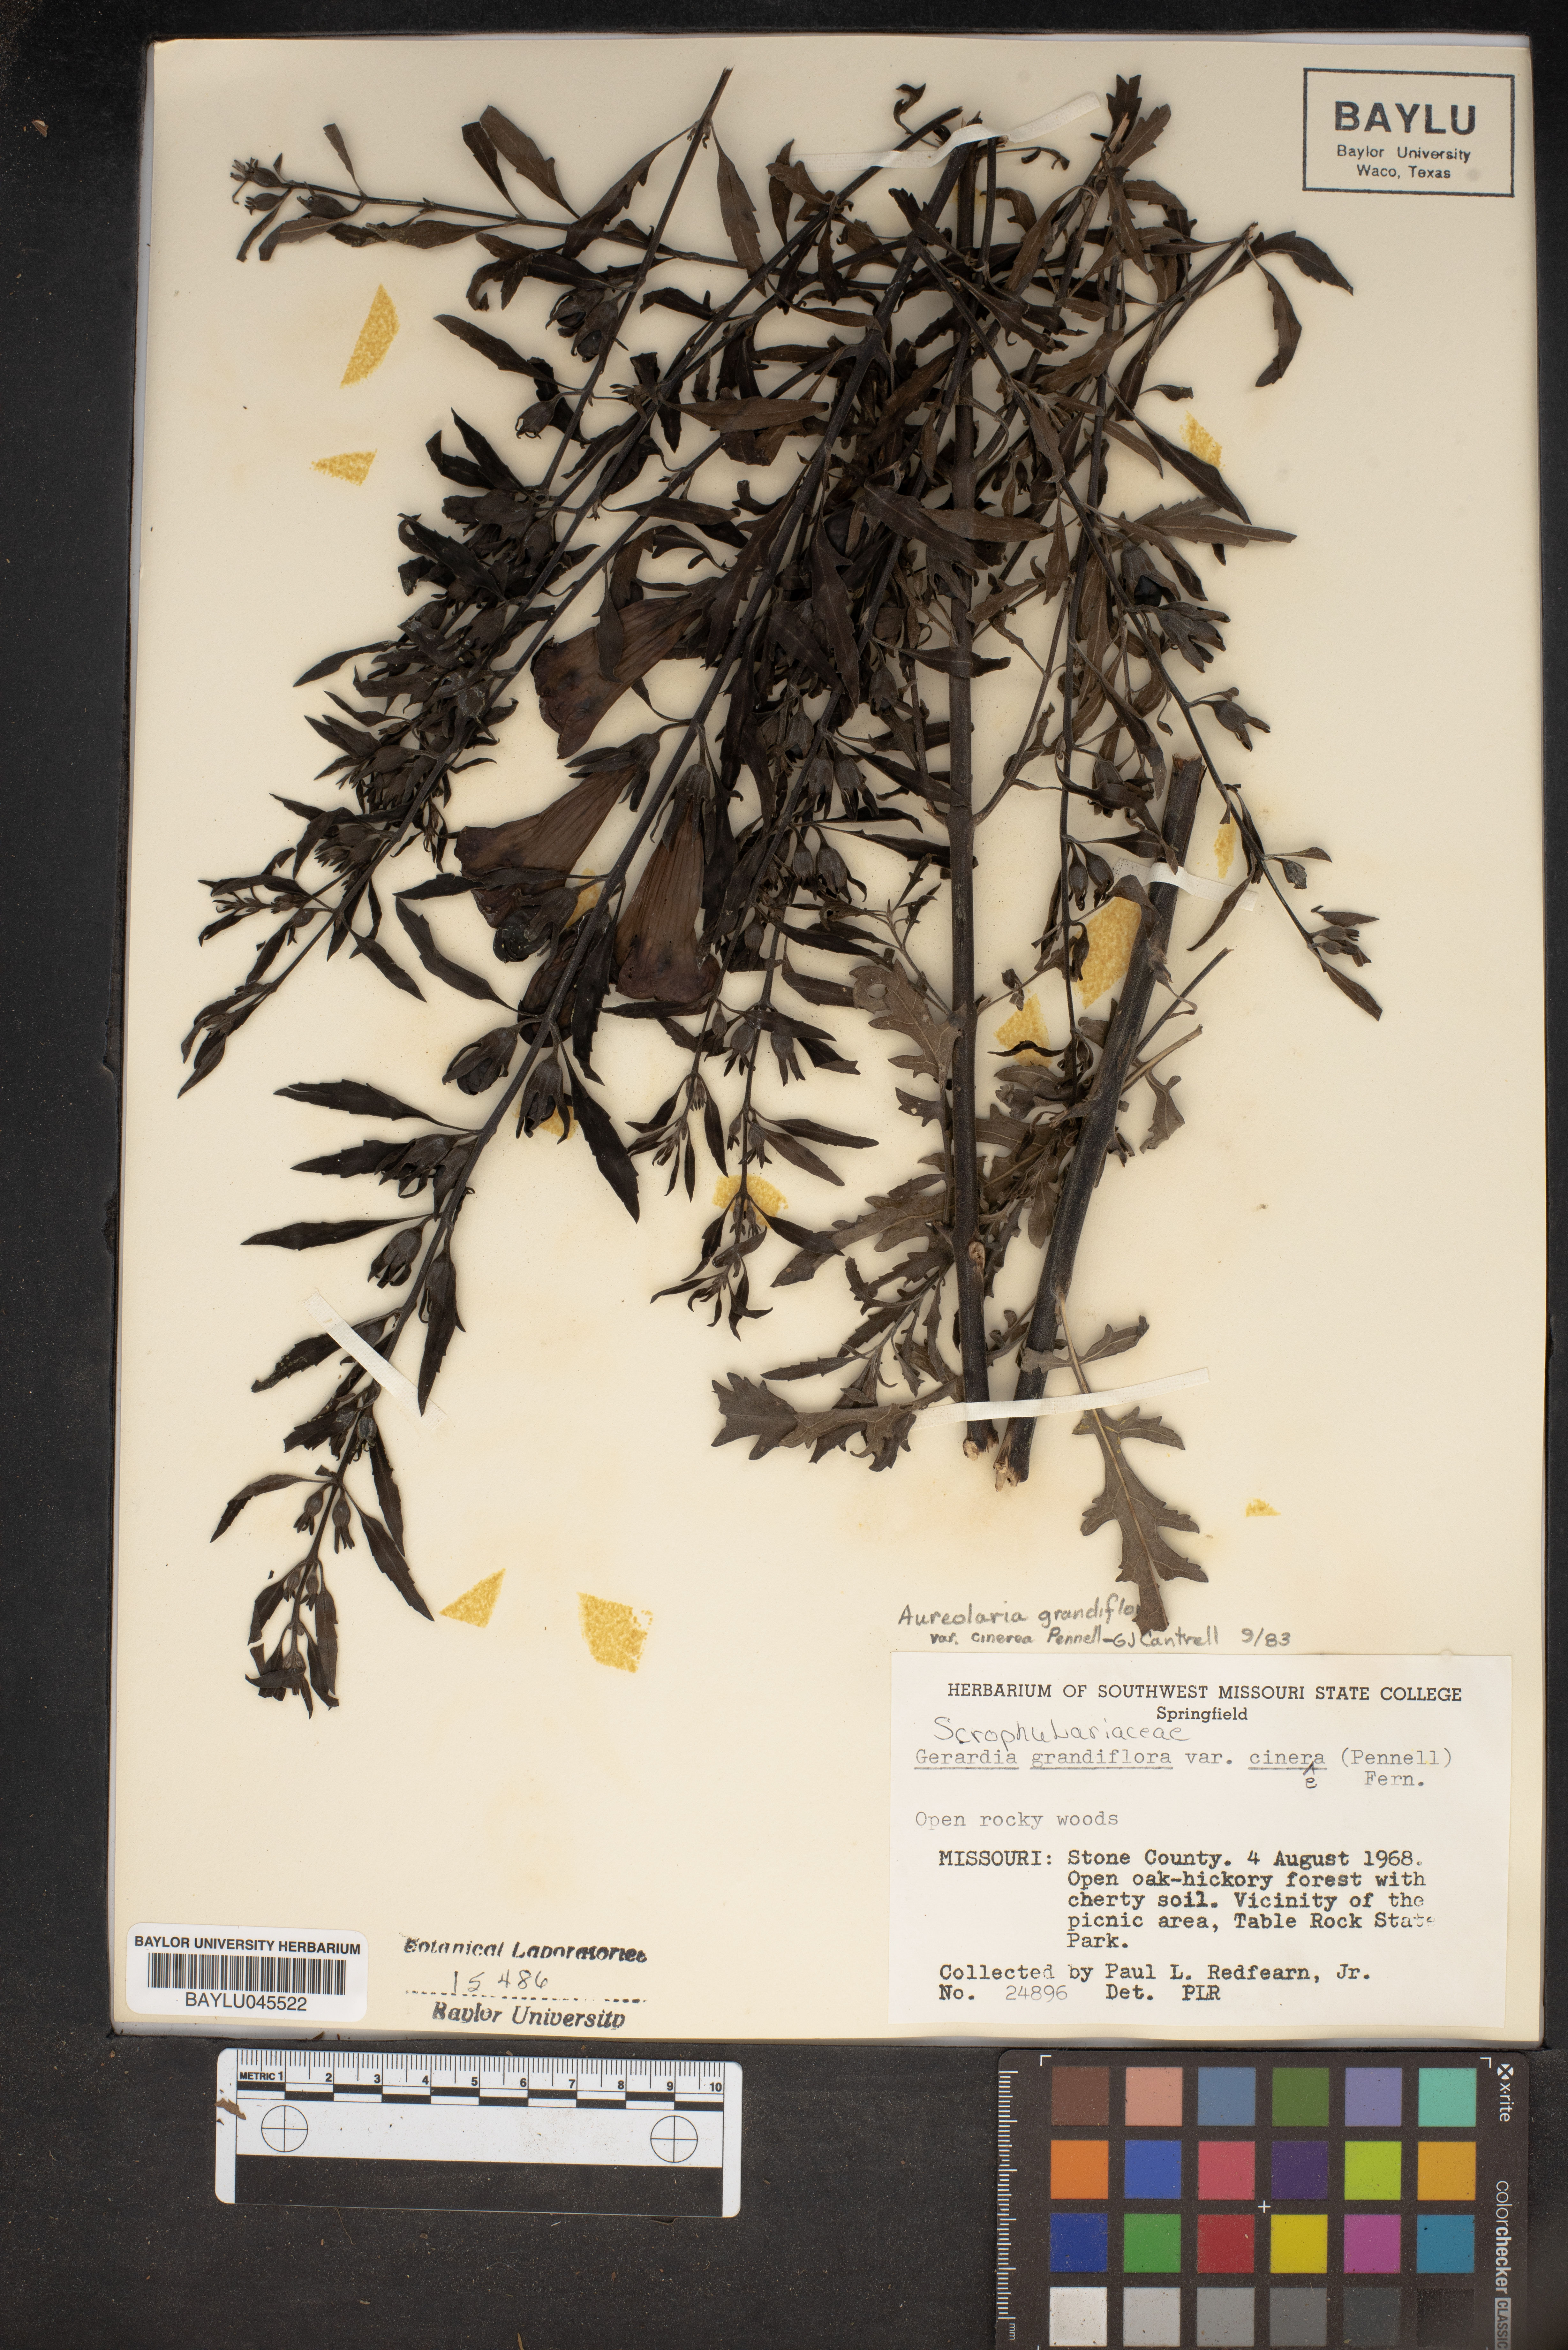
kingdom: Plantae
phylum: Tracheophyta
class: Magnoliopsida
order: Lamiales
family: Orobanchaceae
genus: Aureolaria
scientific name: Aureolaria grandiflora
